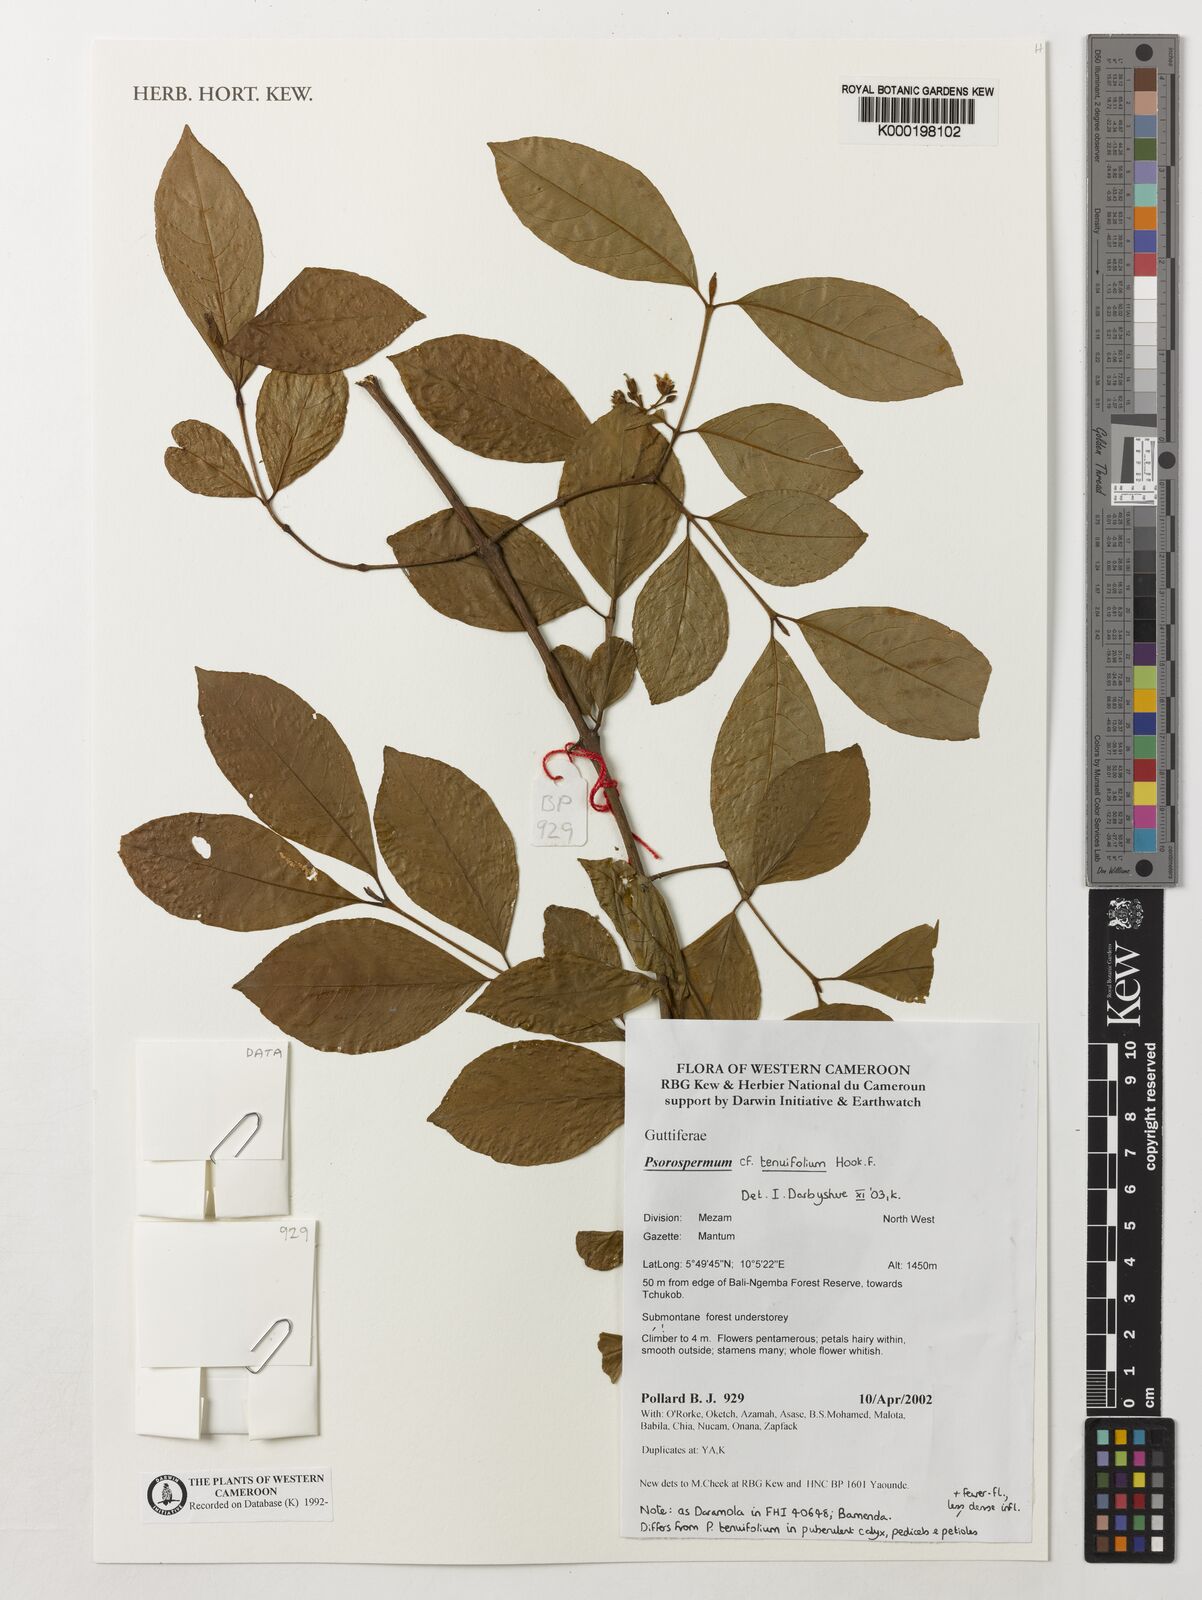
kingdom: Plantae
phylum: Tracheophyta
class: Magnoliopsida
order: Malpighiales
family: Hypericaceae
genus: Psorospermum
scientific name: Psorospermum tenuifolium
